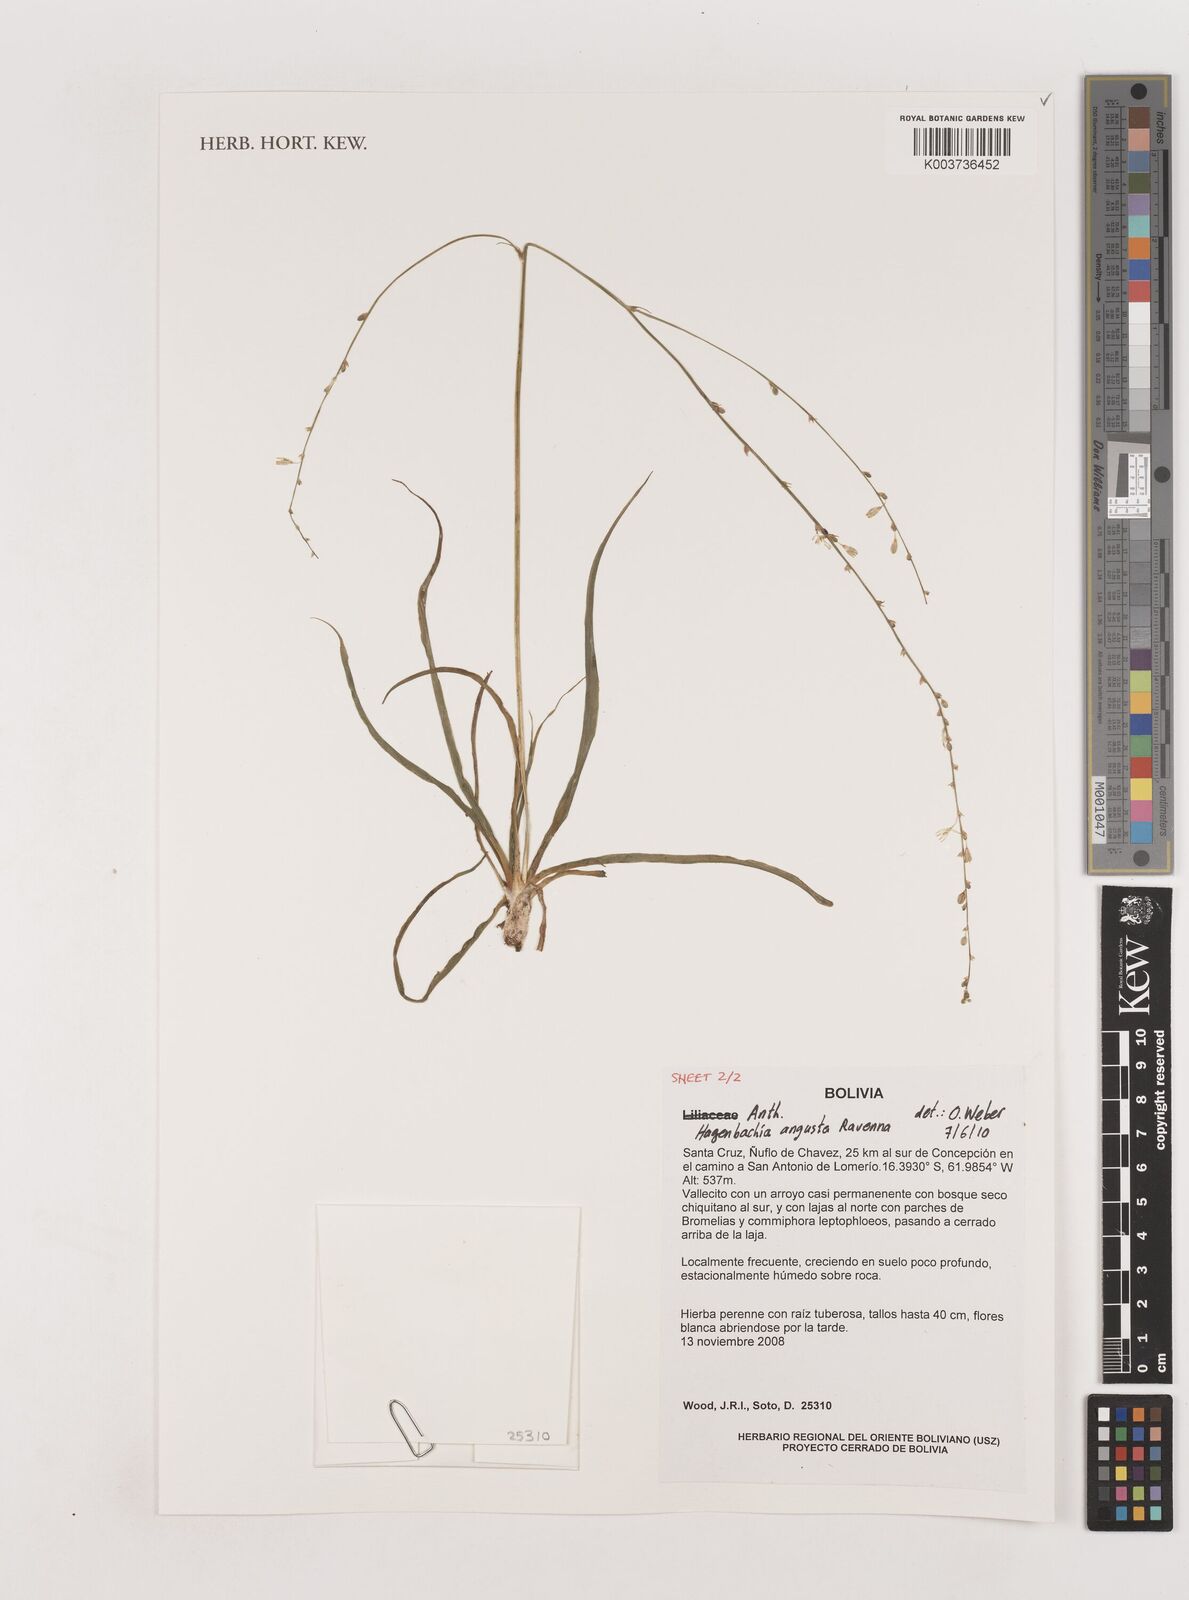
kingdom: Plantae
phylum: Tracheophyta
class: Liliopsida
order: Asparagales
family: Asparagaceae
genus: Hagenbachia
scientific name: Hagenbachia matogrossensis
